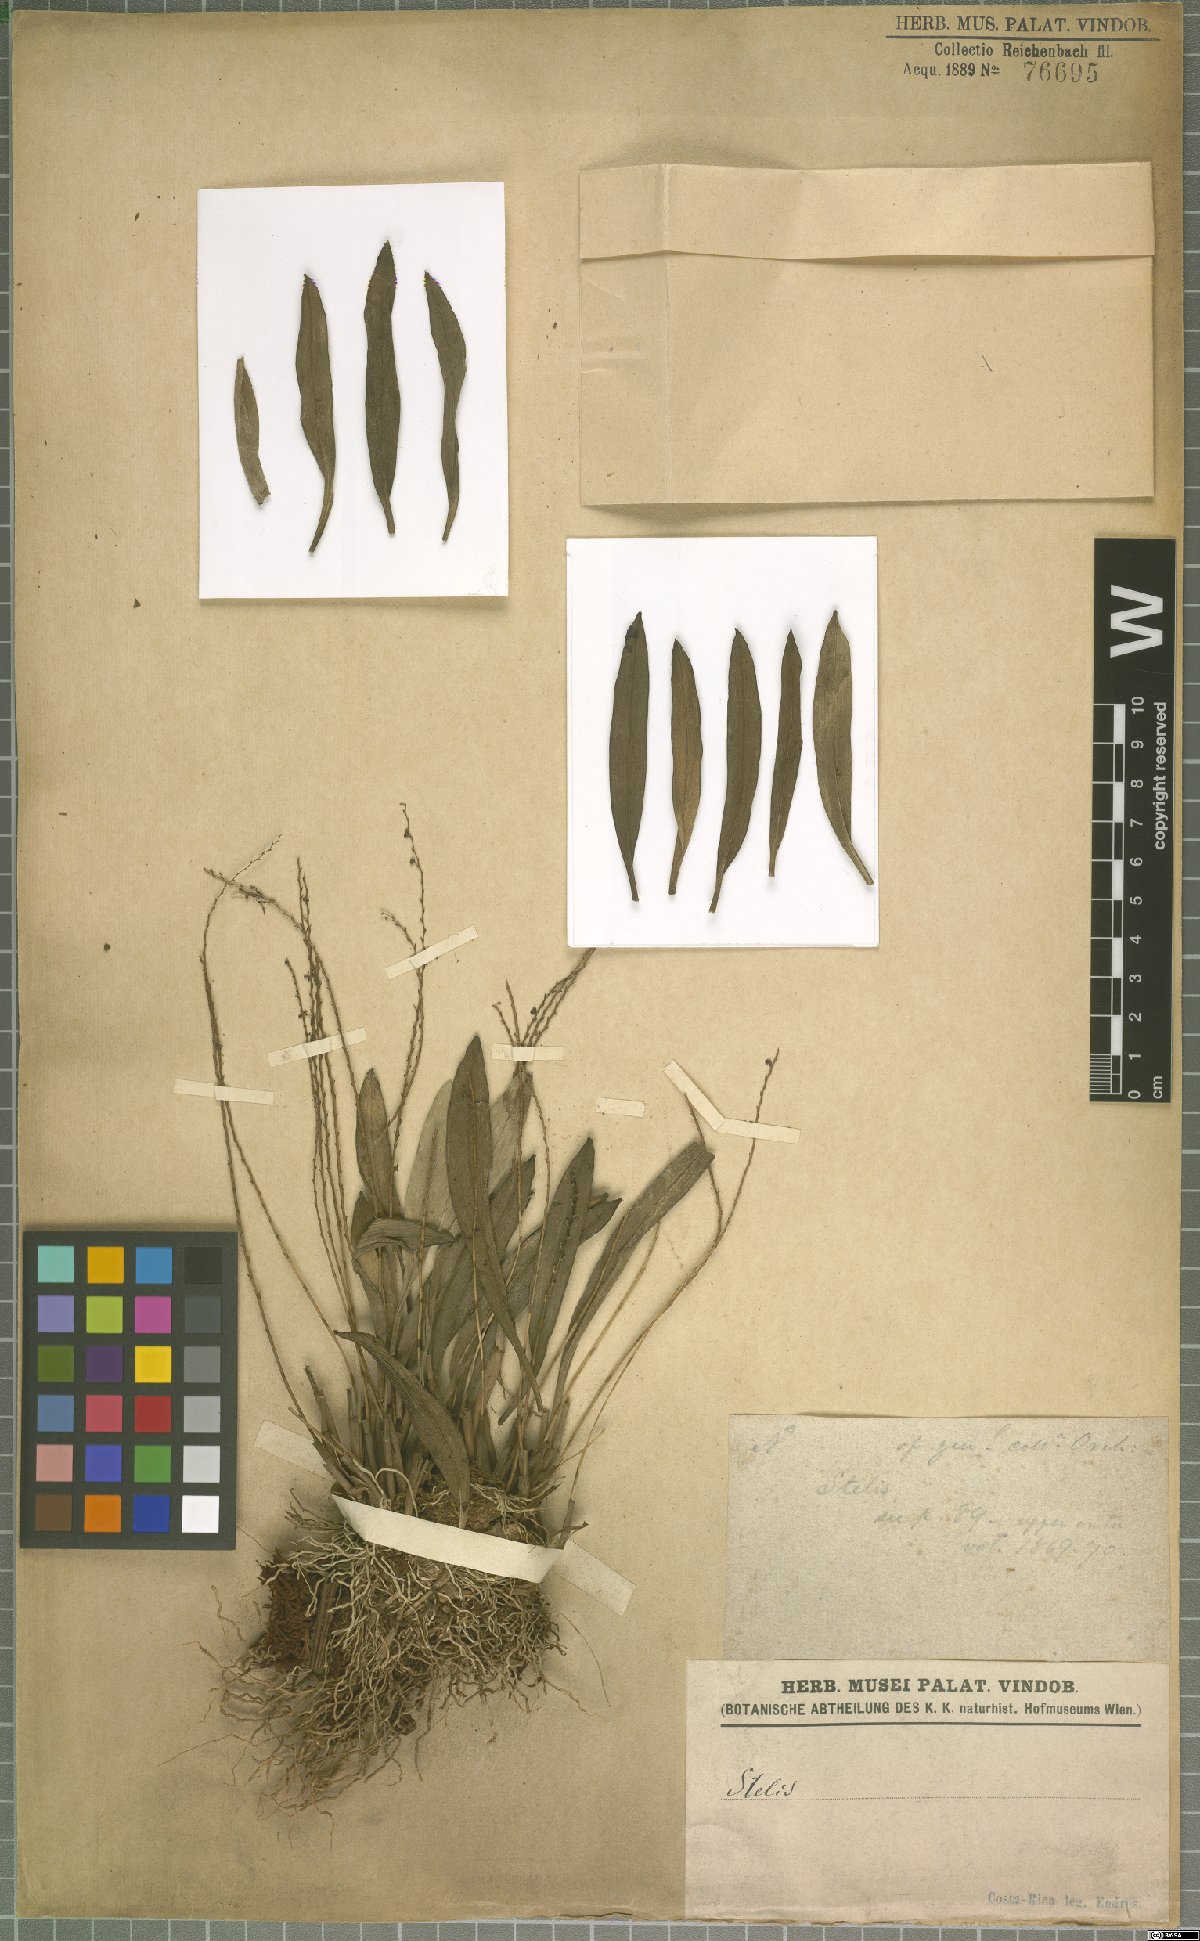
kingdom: Plantae
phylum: Tracheophyta
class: Liliopsida
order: Asparagales
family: Orchidaceae
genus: Stelis
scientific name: Stelis
